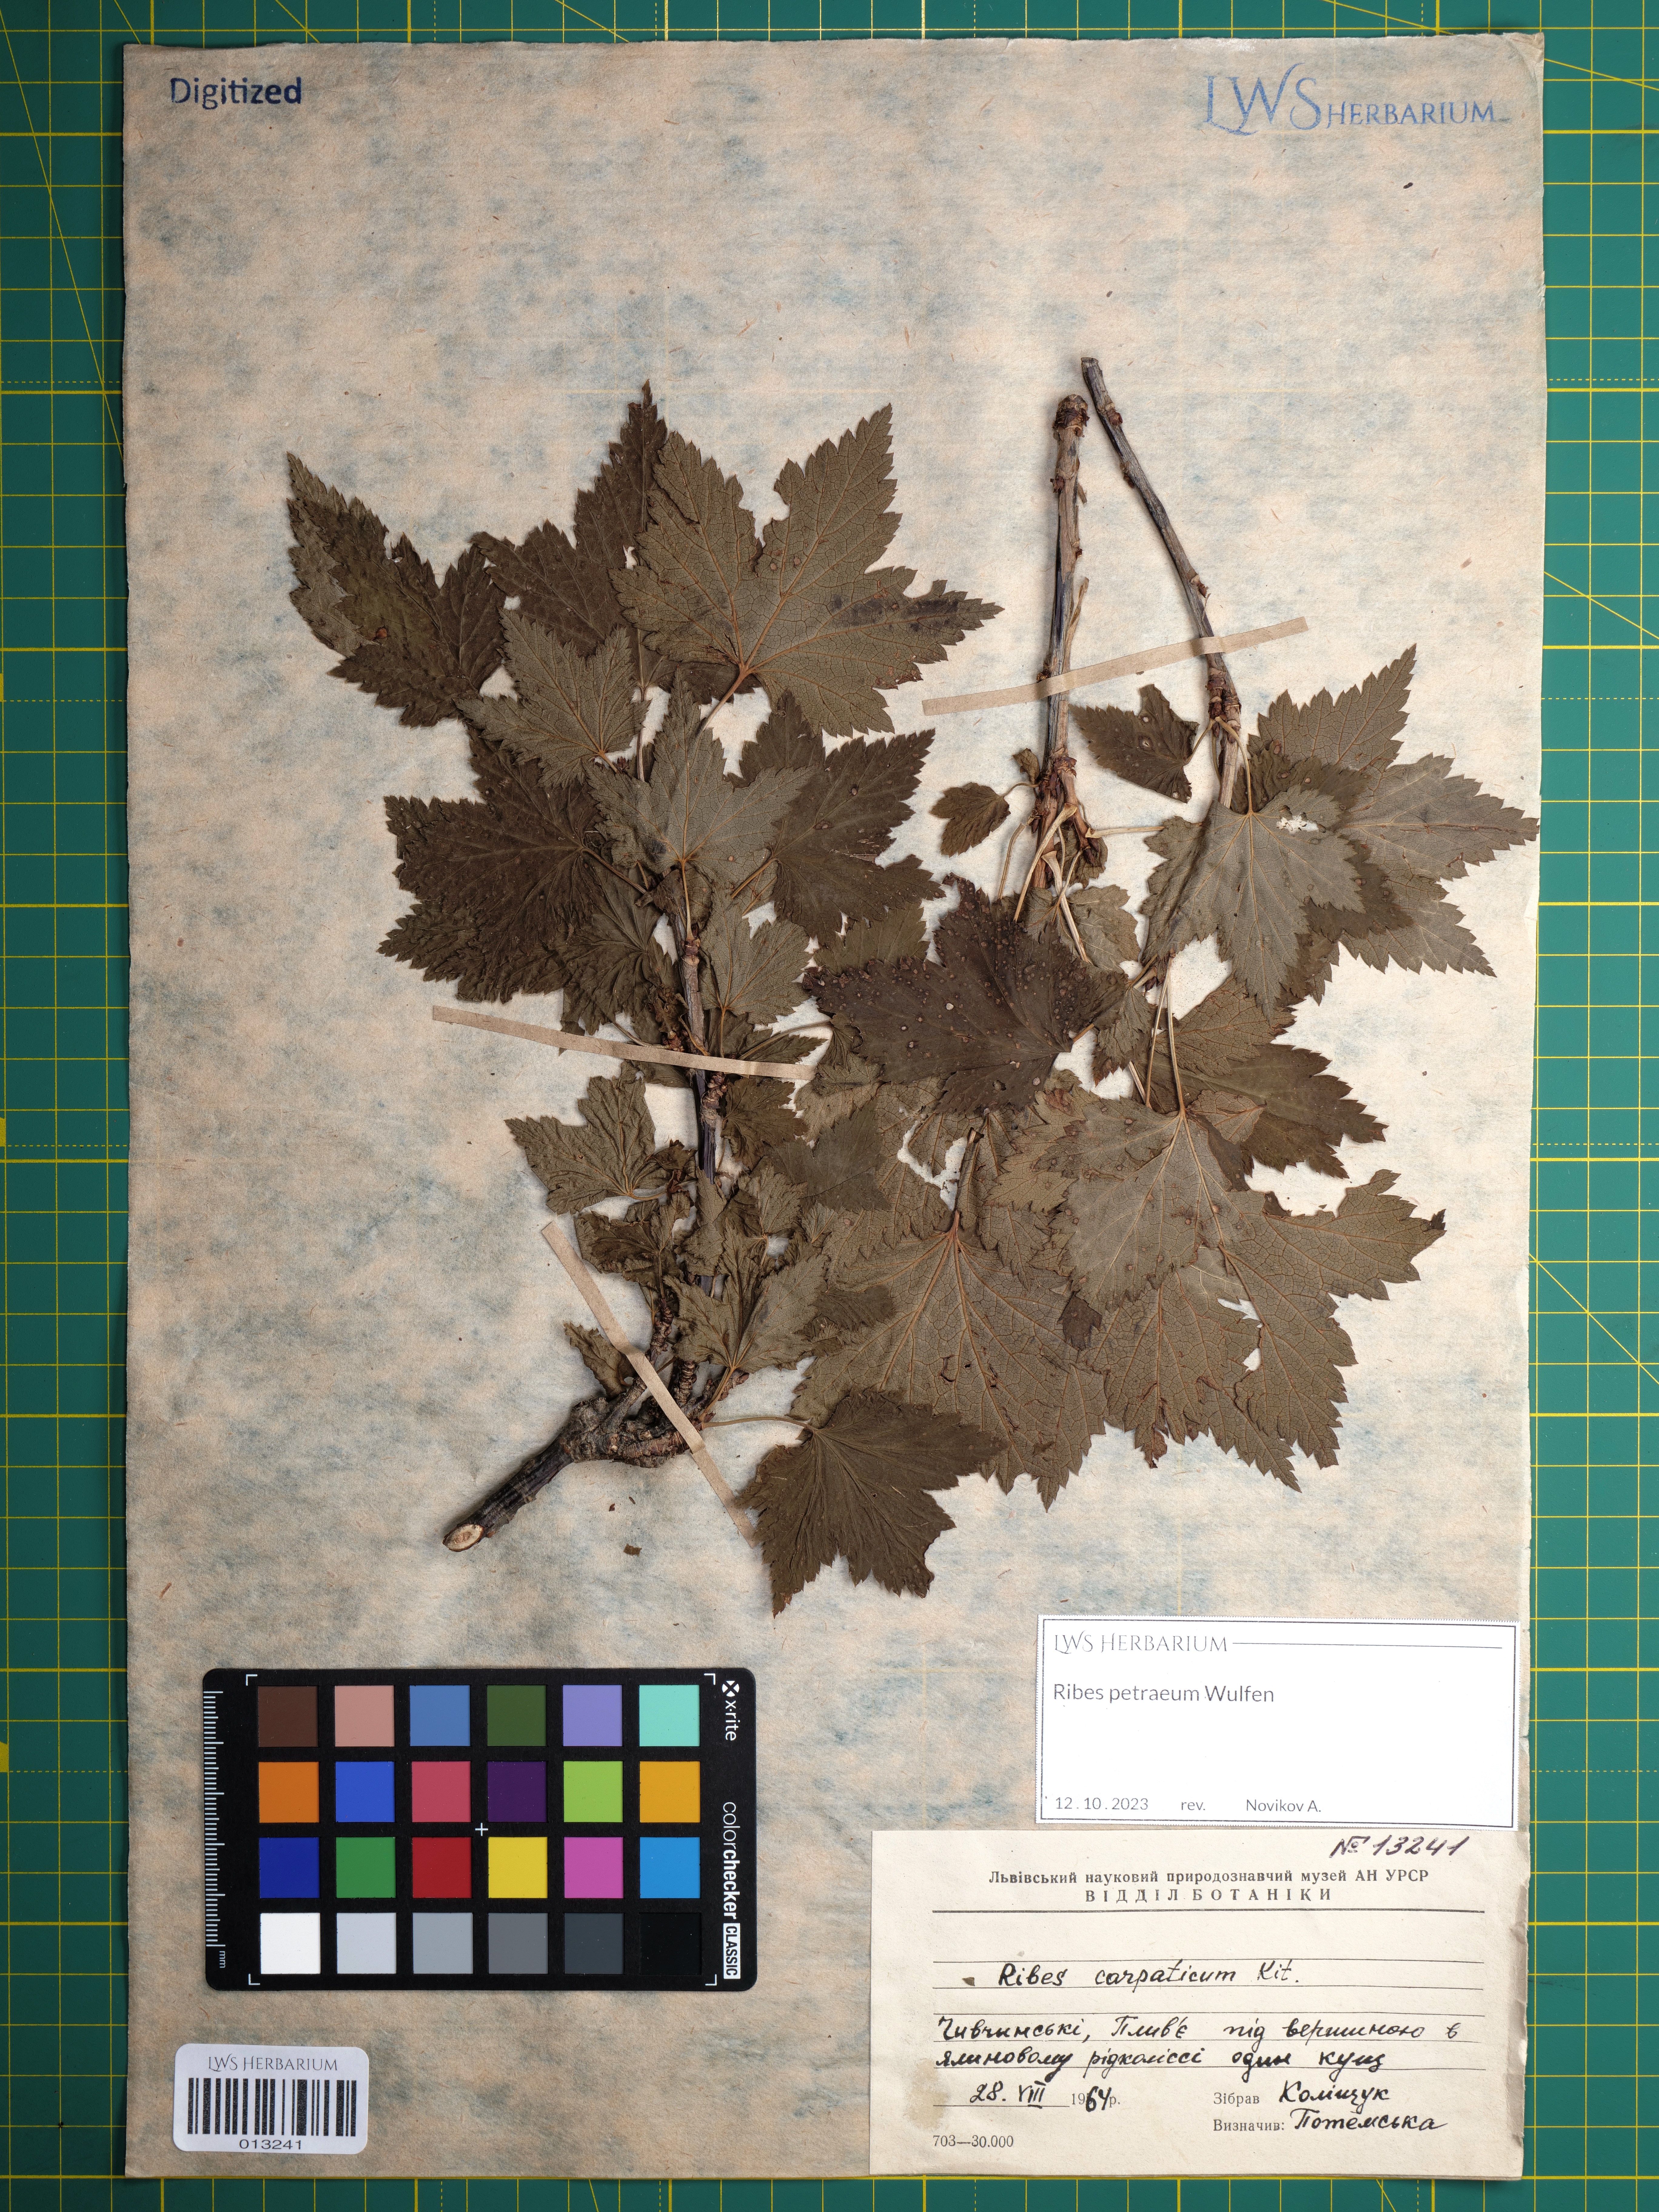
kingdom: Plantae
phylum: Tracheophyta
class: Magnoliopsida
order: Saxifragales
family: Grossulariaceae
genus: Ribes
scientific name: Ribes petraeum
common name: Rock currant
